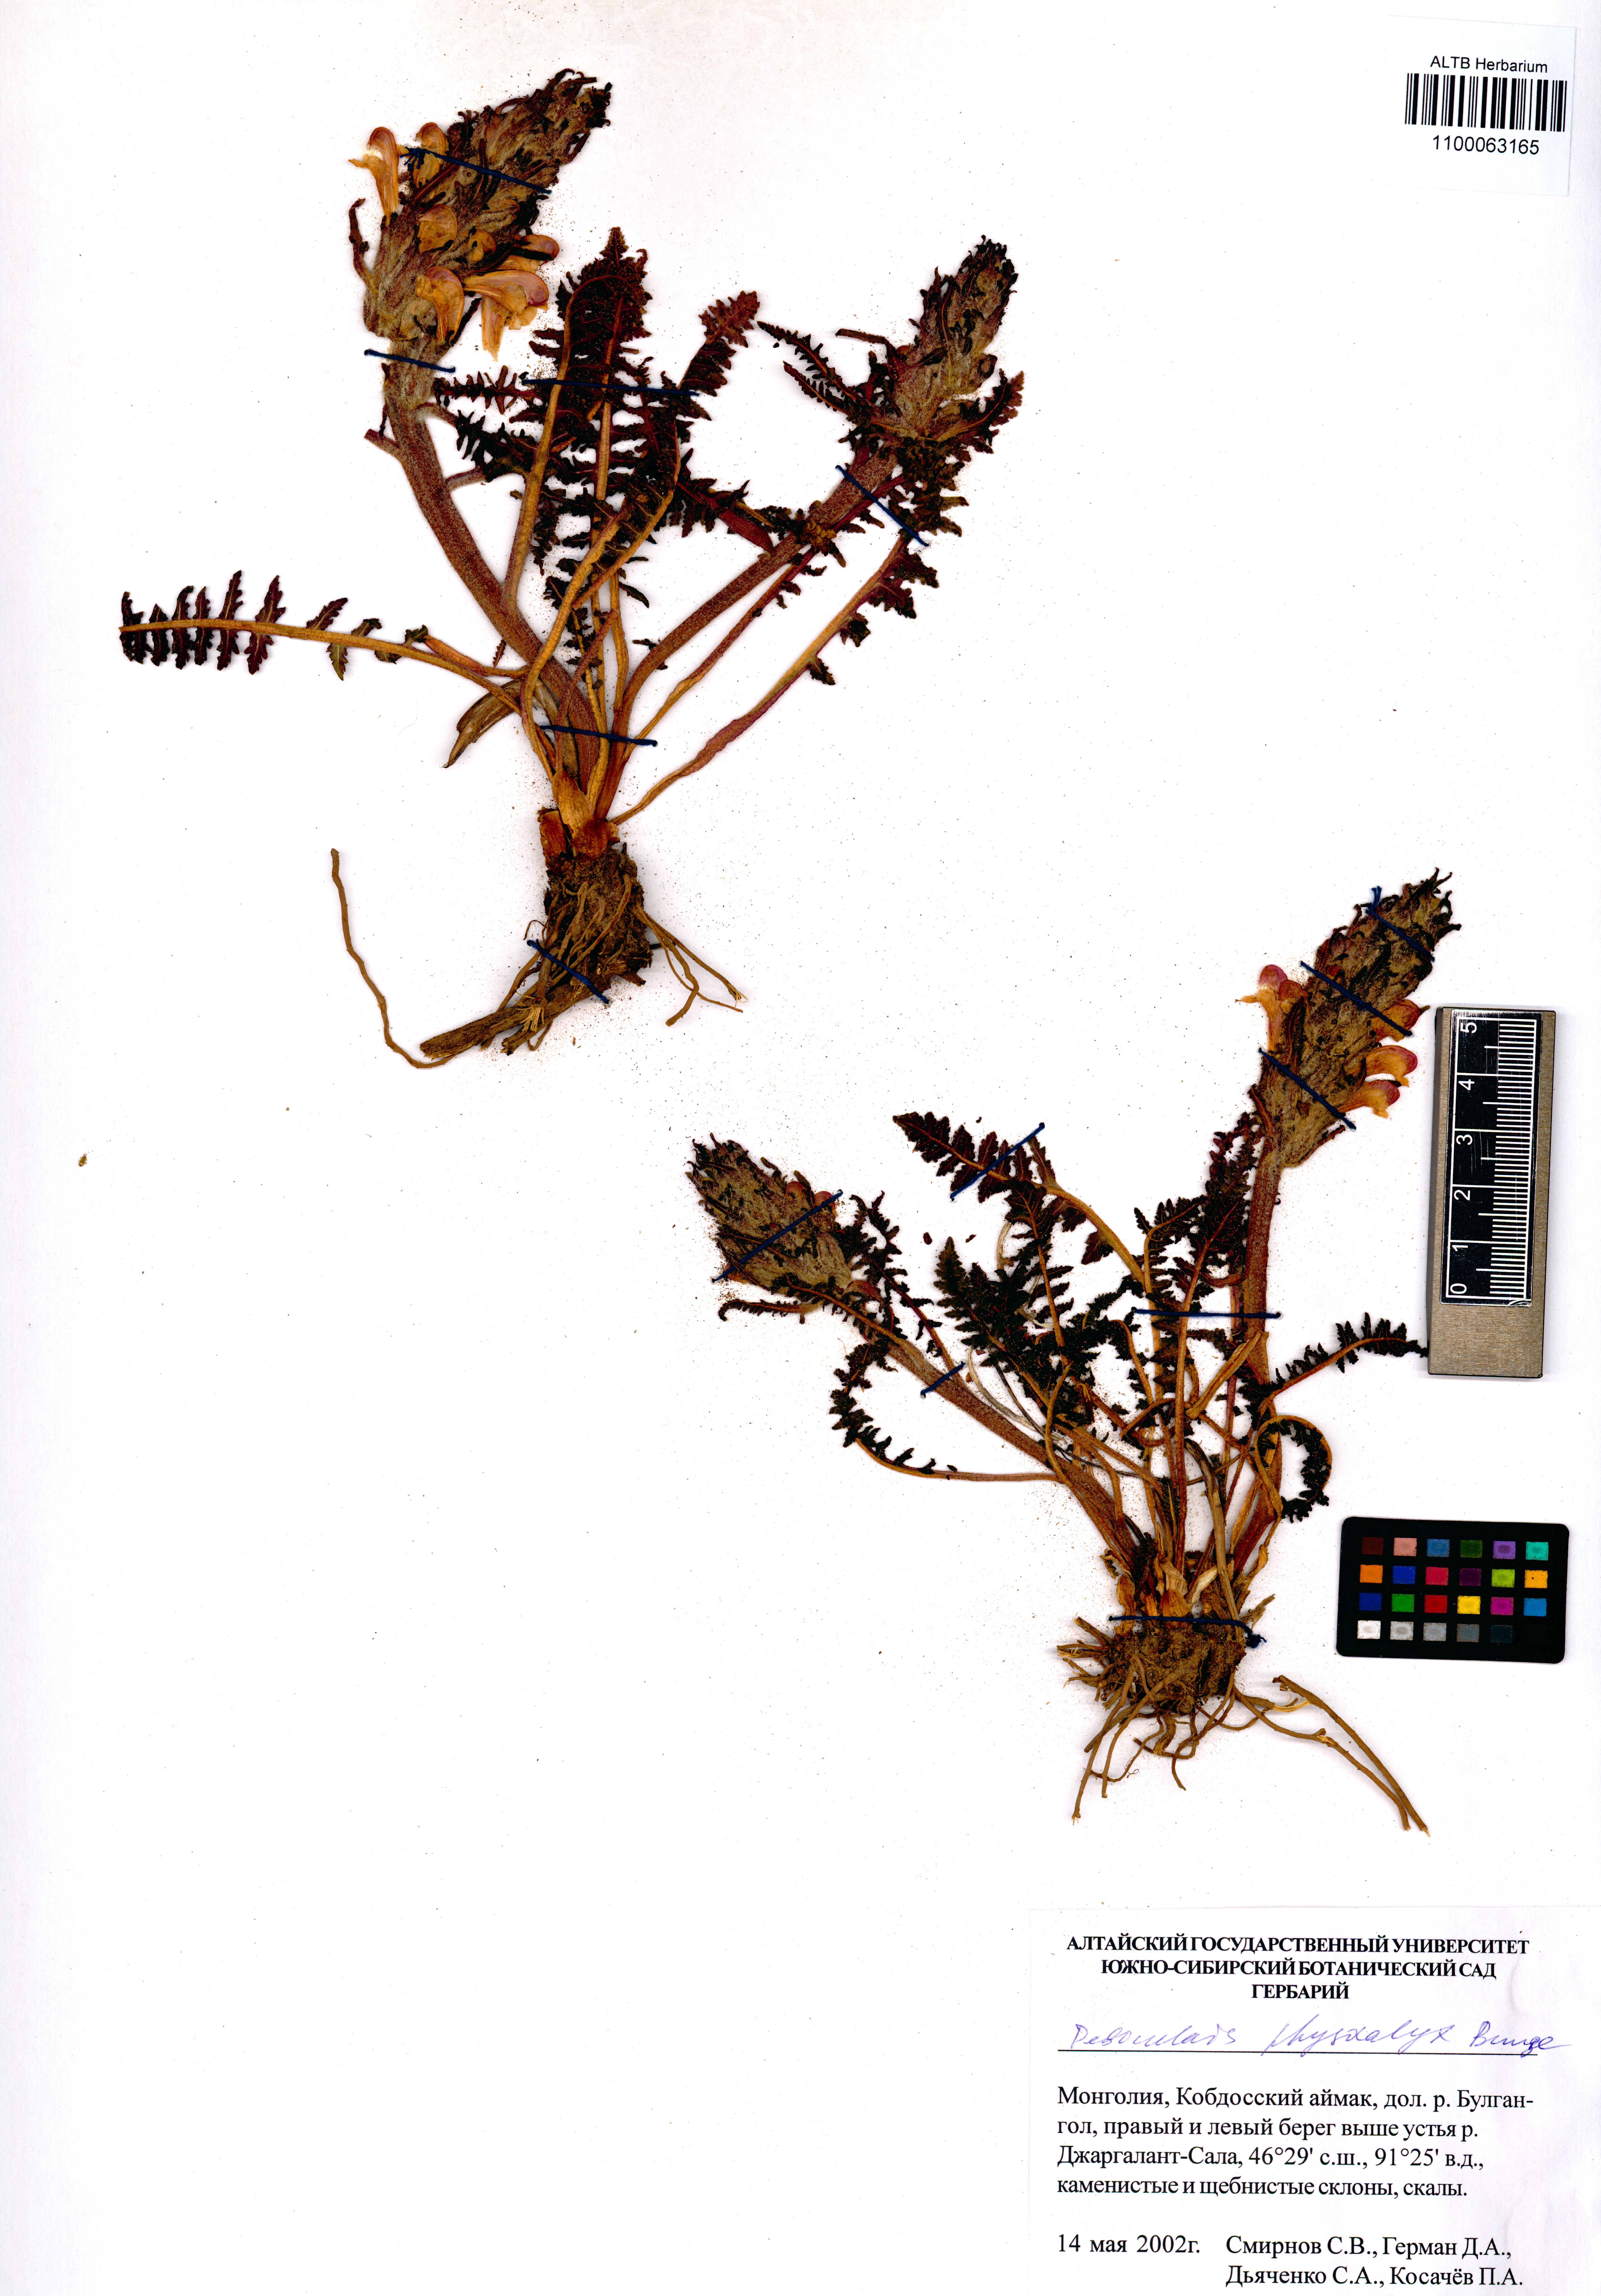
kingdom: Plantae
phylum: Tracheophyta
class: Magnoliopsida
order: Lamiales
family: Orobanchaceae
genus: Pedicularis
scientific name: Pedicularis physocalyx
